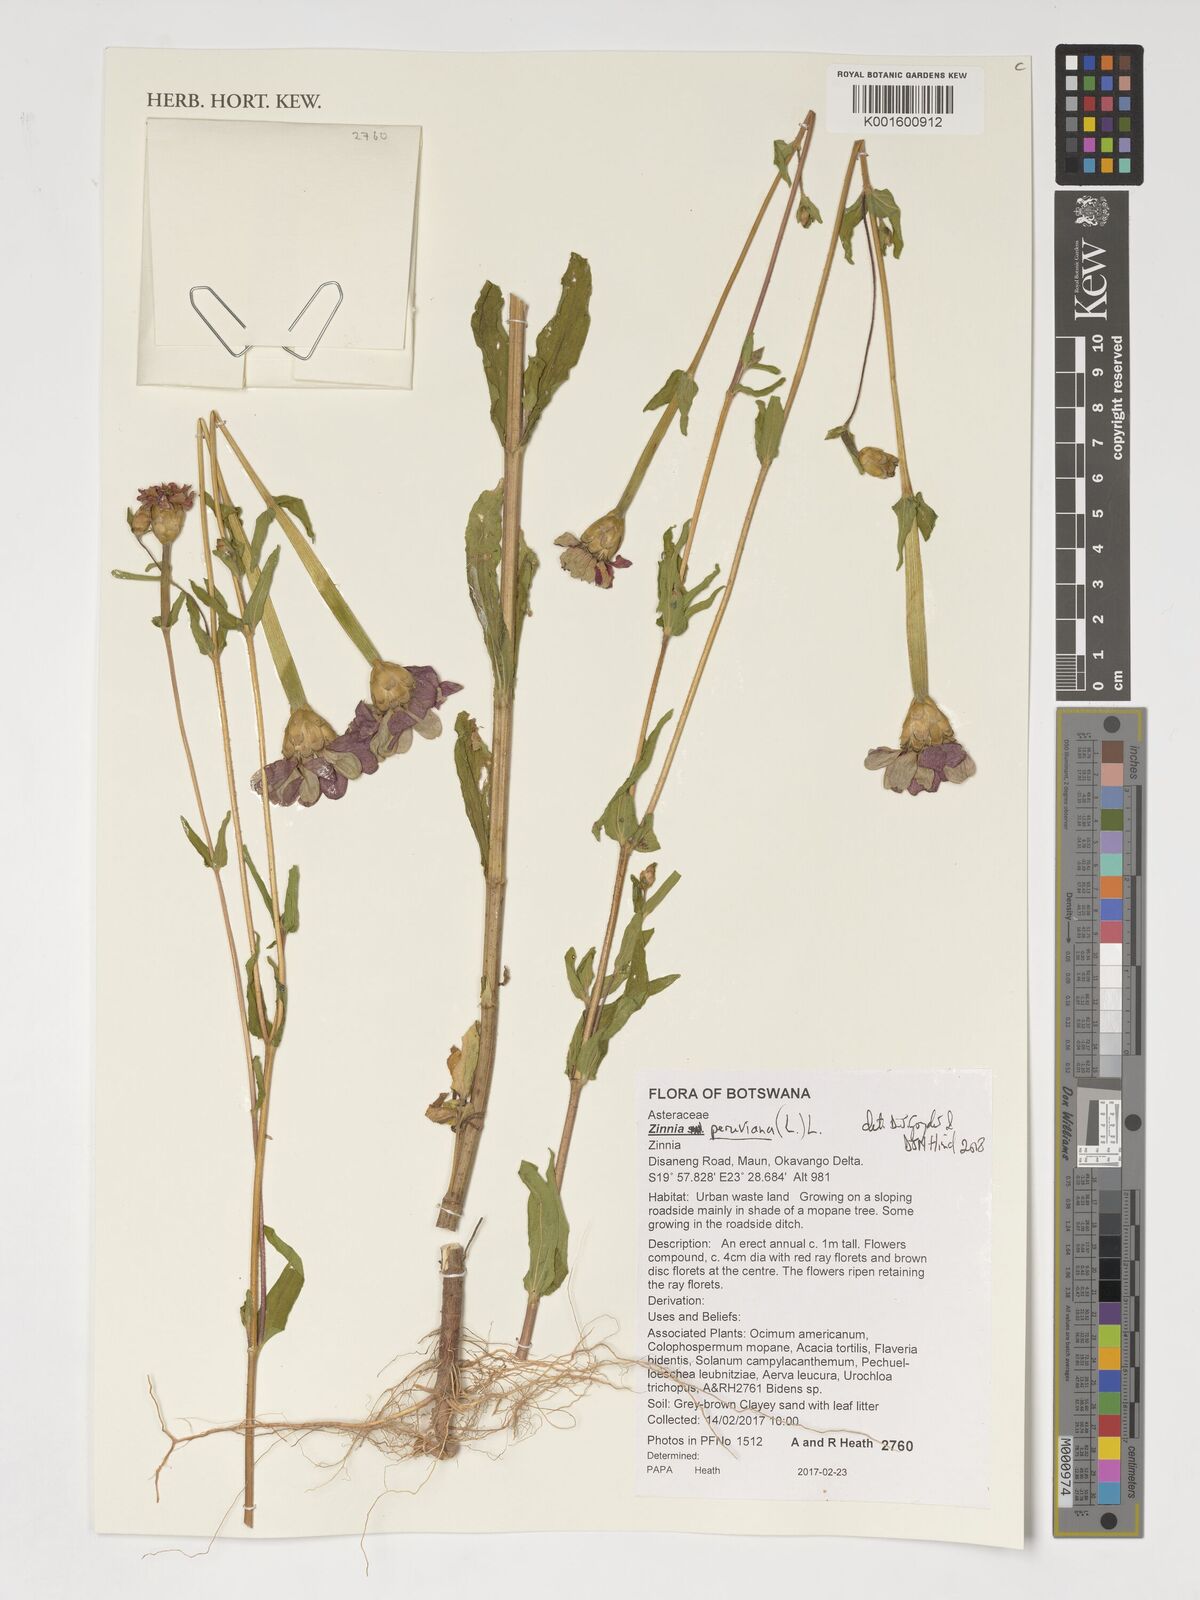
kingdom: Plantae
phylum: Tracheophyta
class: Magnoliopsida
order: Asterales
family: Asteraceae
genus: Zinnia
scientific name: Zinnia peruviana
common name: Peruvian zinnia
